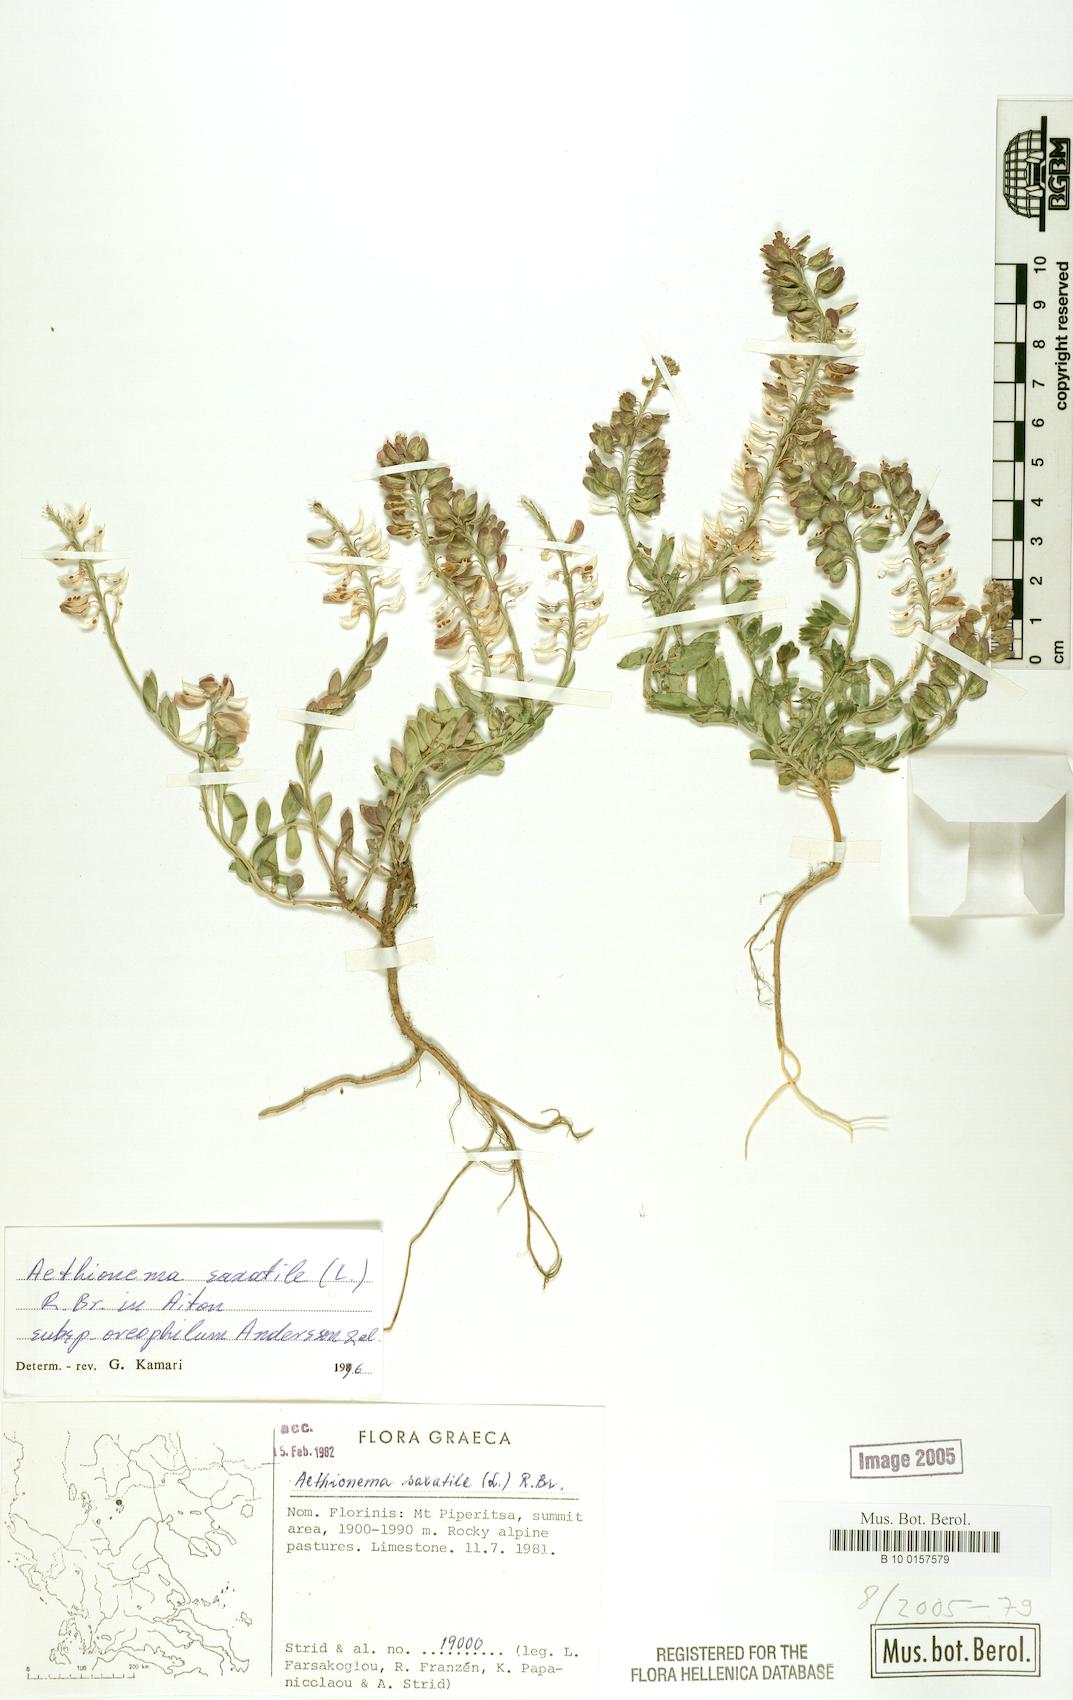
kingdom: Plantae
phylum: Tracheophyta
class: Magnoliopsida
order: Brassicales
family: Brassicaceae
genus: Aethionema
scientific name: Aethionema saxatile
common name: Burnt candytuft
